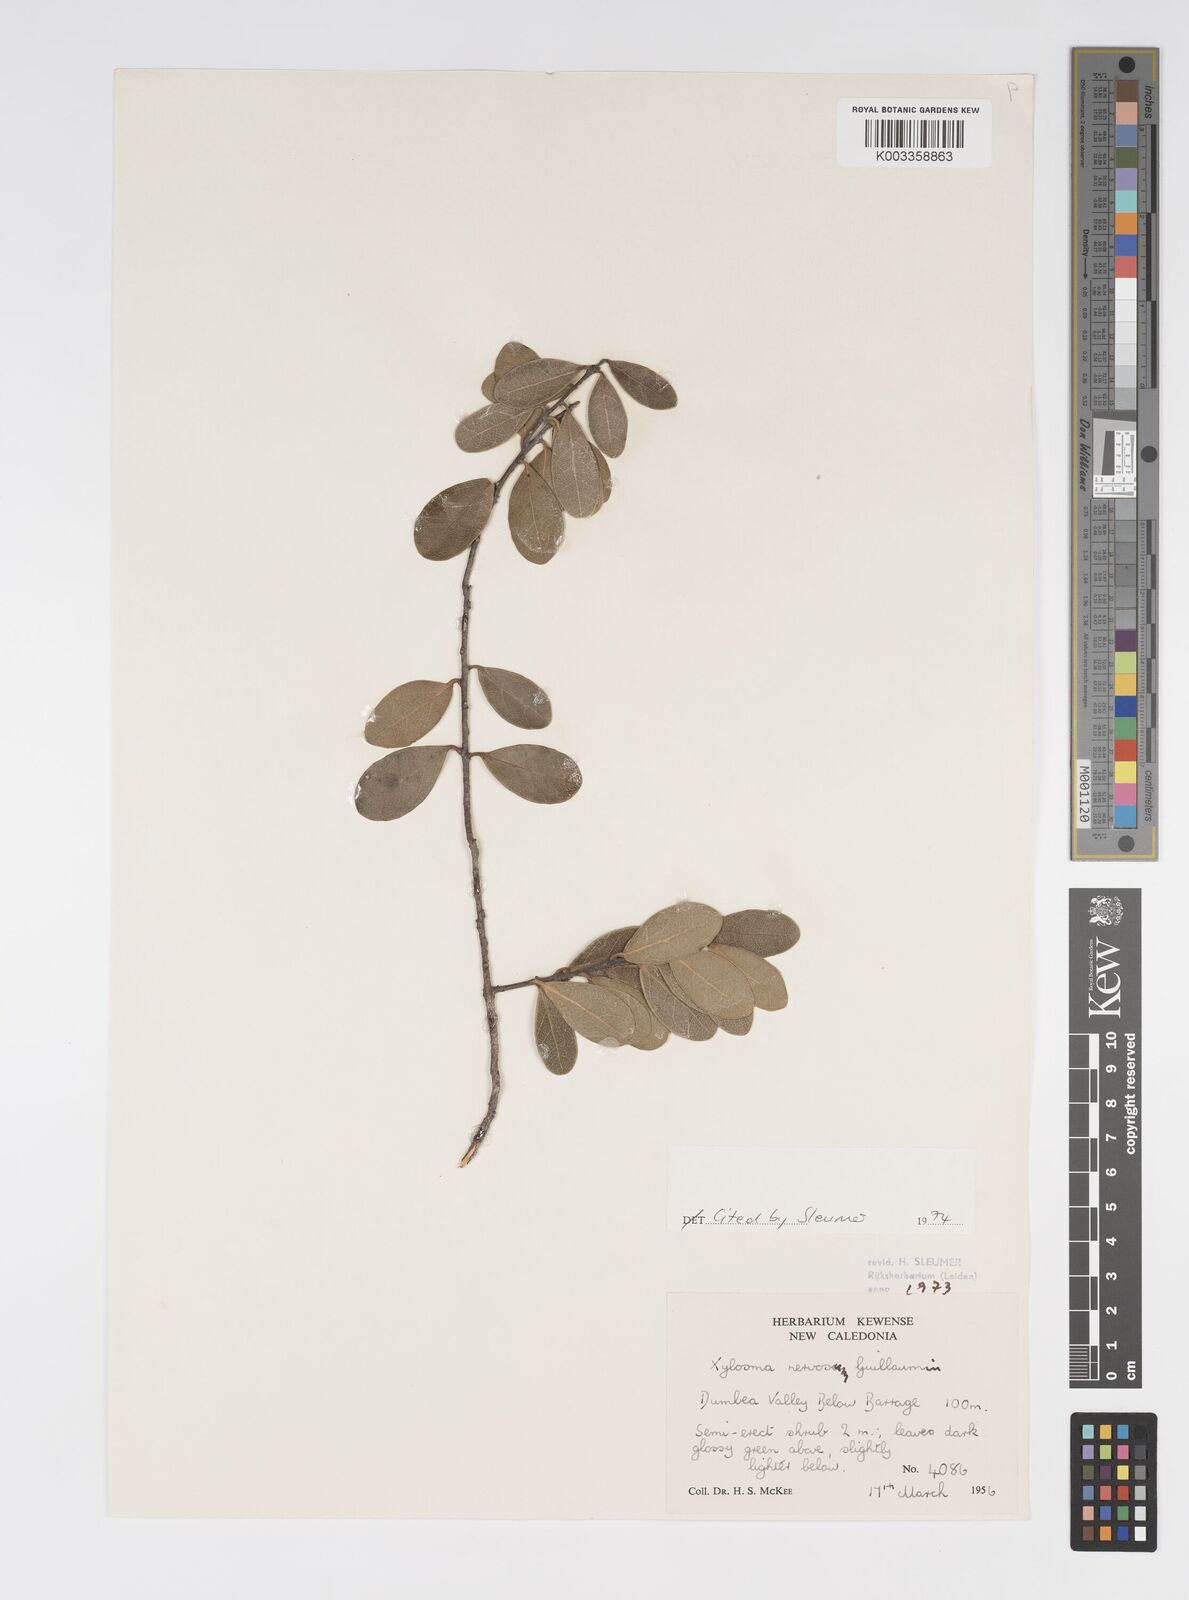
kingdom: Plantae
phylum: Tracheophyta
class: Magnoliopsida
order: Malpighiales
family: Salicaceae
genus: Xylosma
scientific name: Xylosma nervosa
